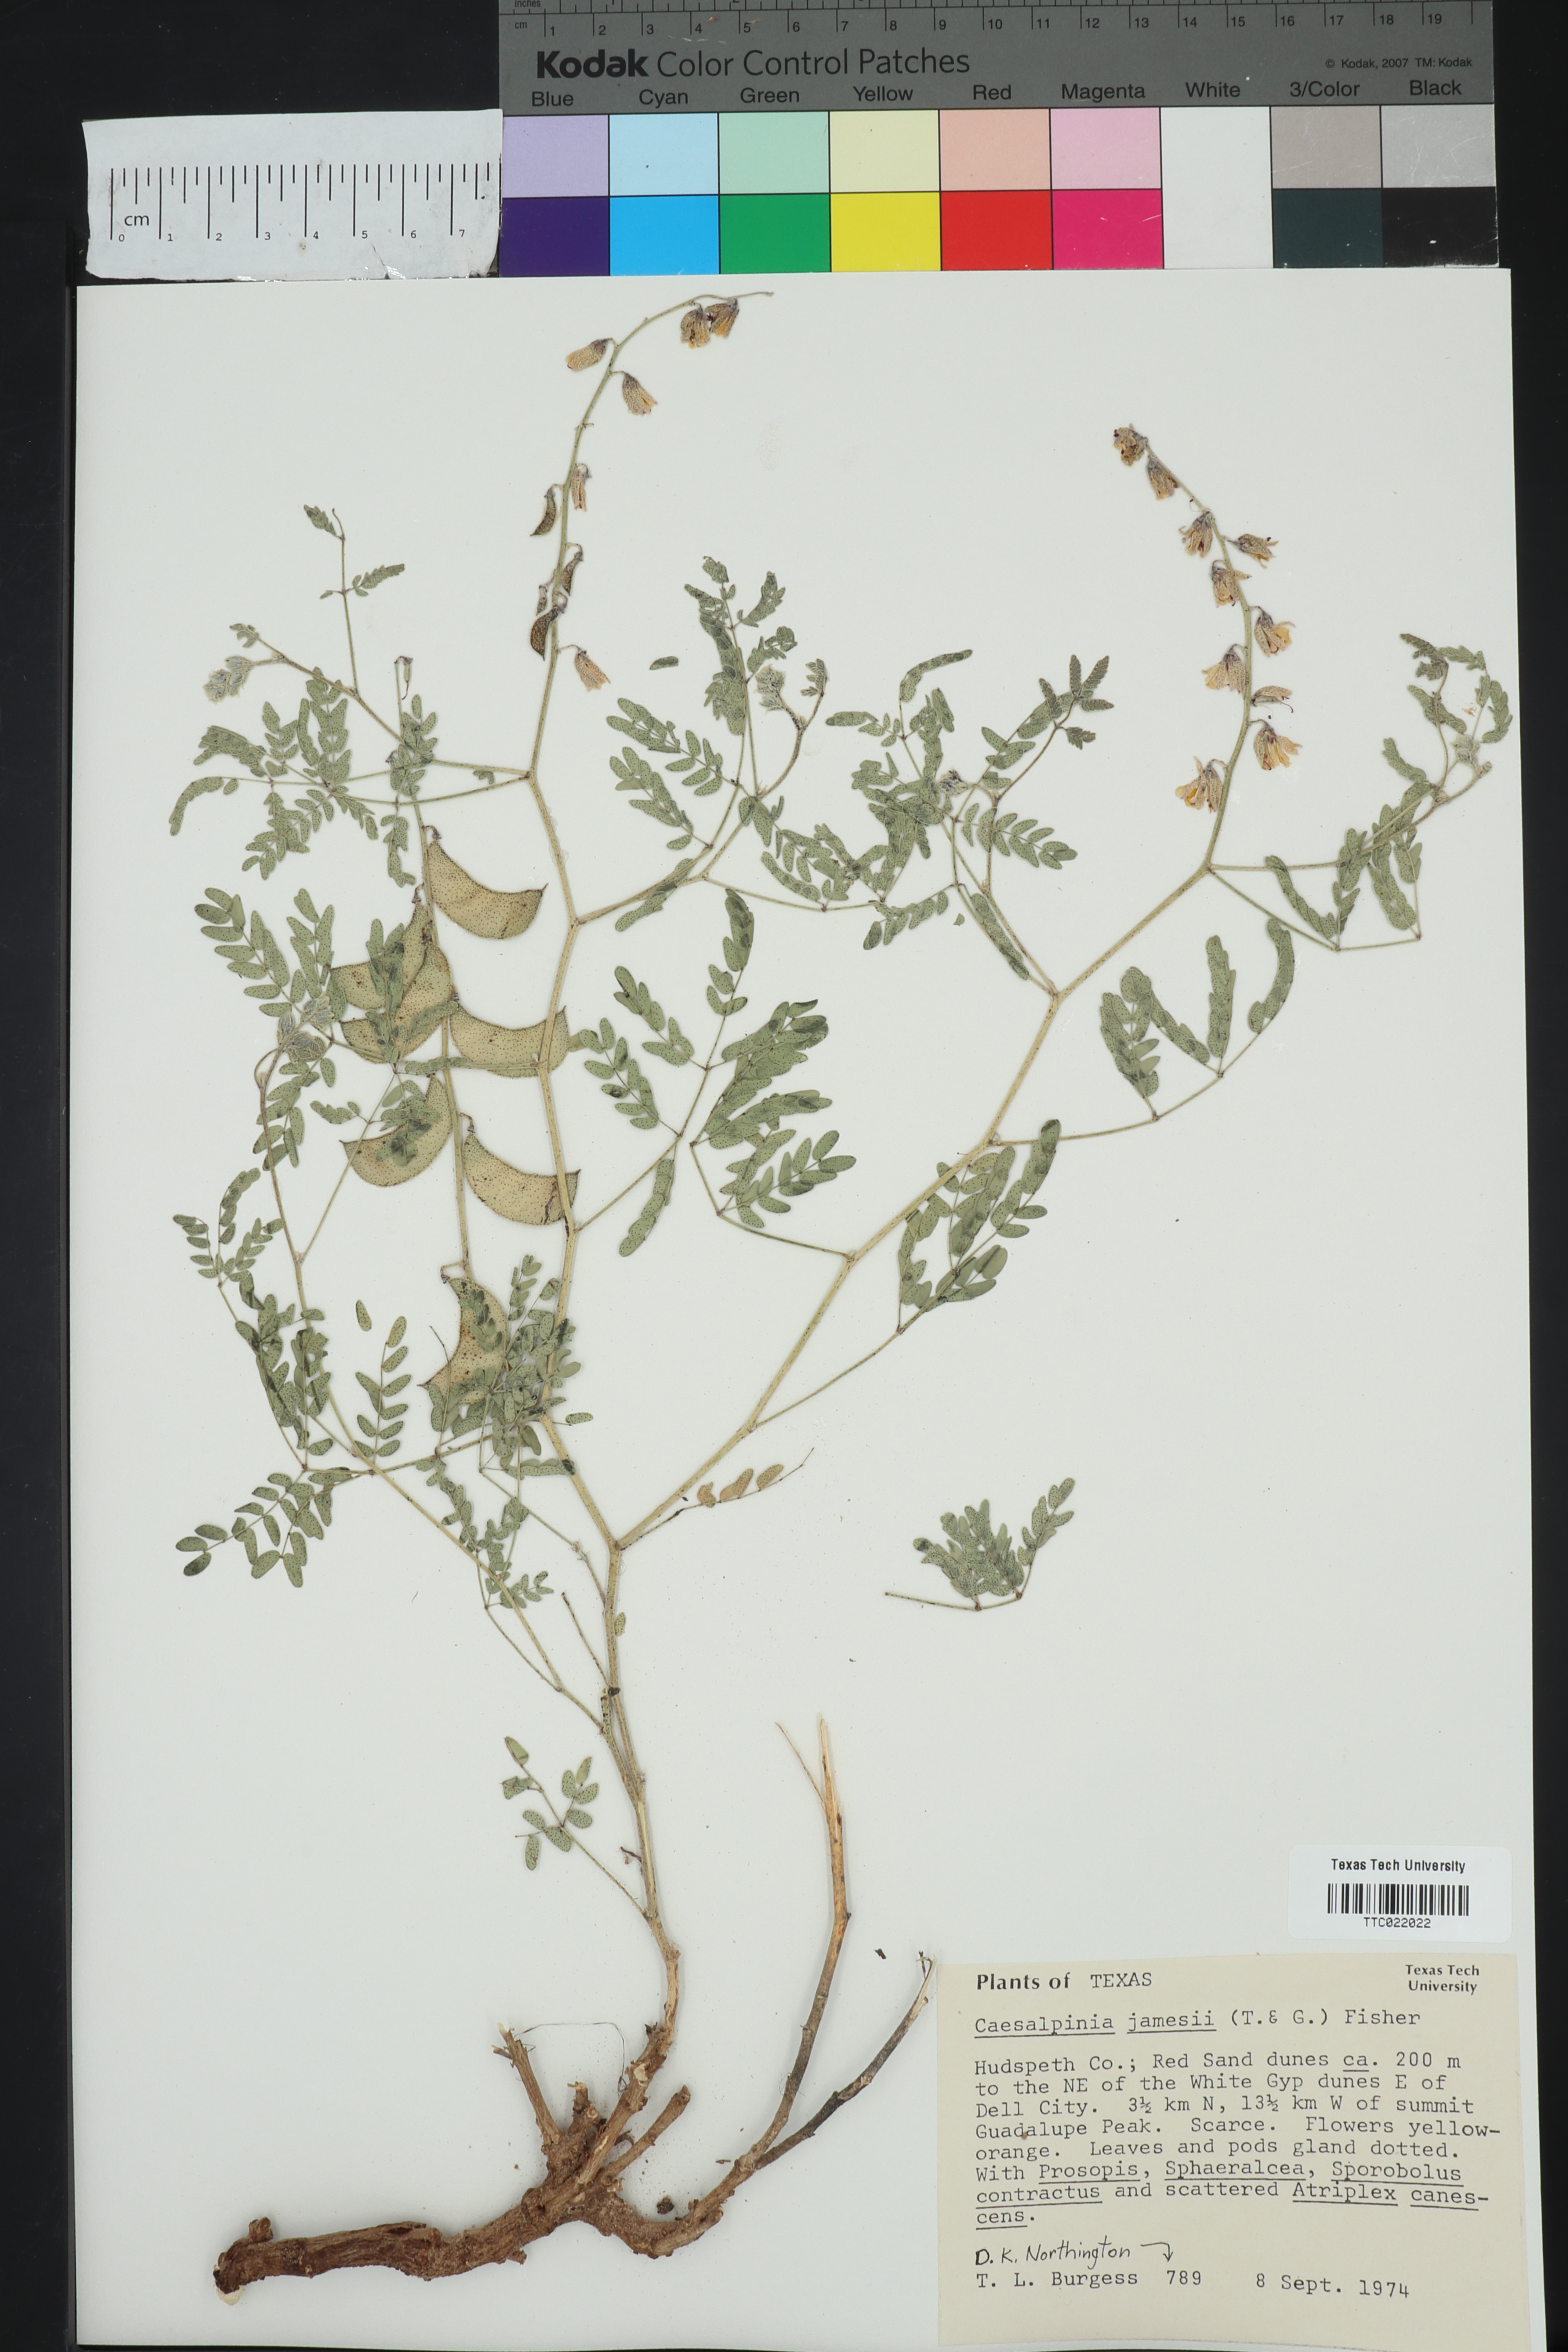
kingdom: Plantae
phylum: Tracheophyta
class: Magnoliopsida
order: Fabales
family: Fabaceae
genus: Pomaria
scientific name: Pomaria jamesii
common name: James' caesalpinia
